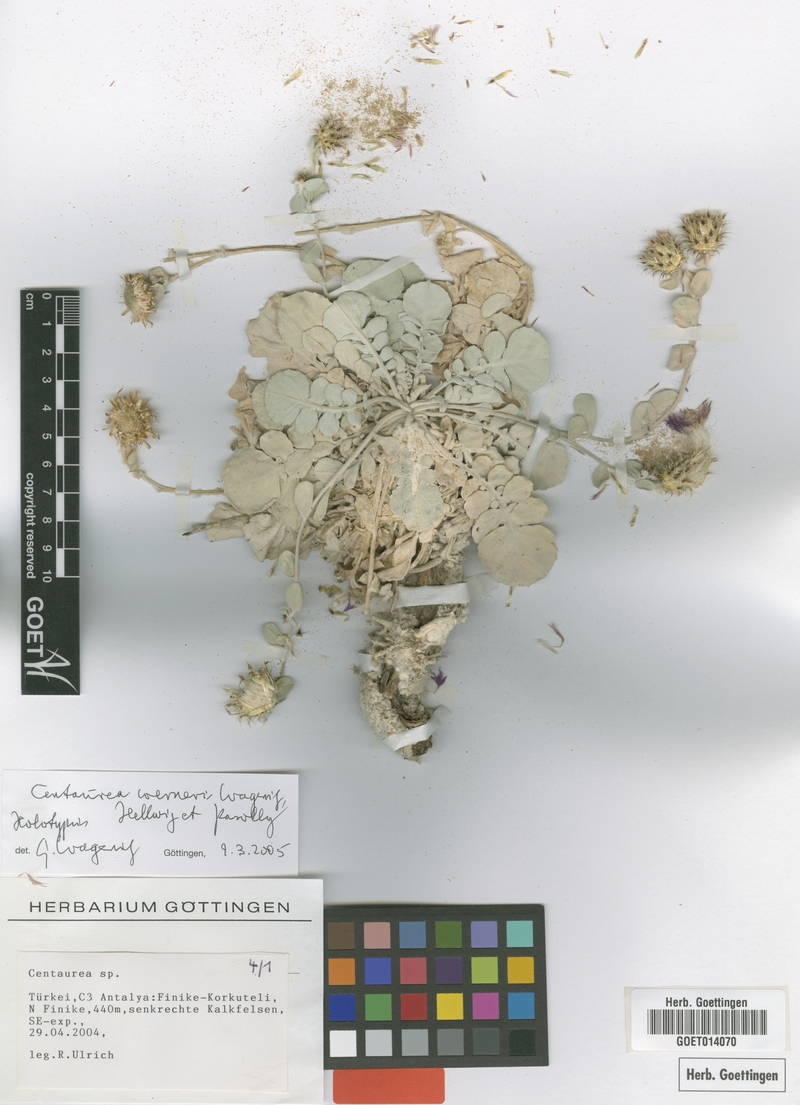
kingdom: Plantae
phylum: Tracheophyta
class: Magnoliopsida
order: Asterales
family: Asteraceae
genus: Centaurea
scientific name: Centaurea werneri
